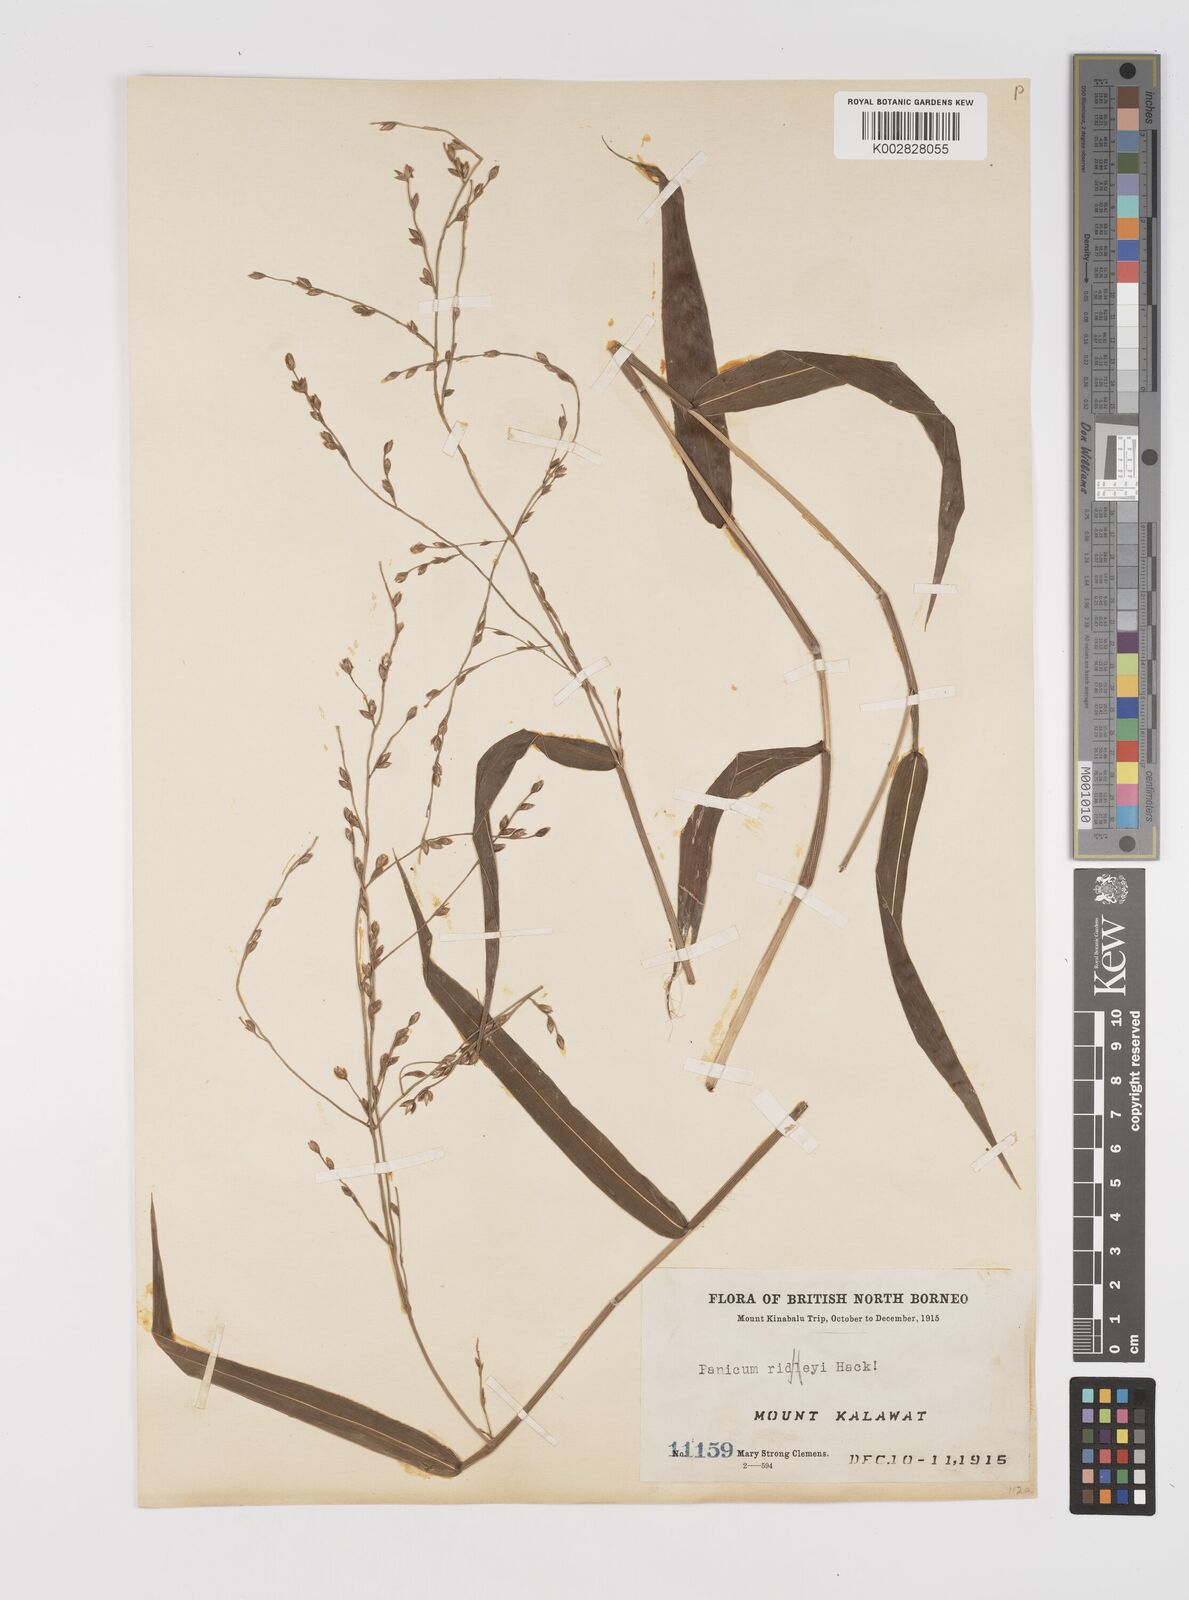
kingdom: Plantae
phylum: Tracheophyta
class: Liliopsida
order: Poales
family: Poaceae
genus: Acroceras
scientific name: Acroceras tonkinense
